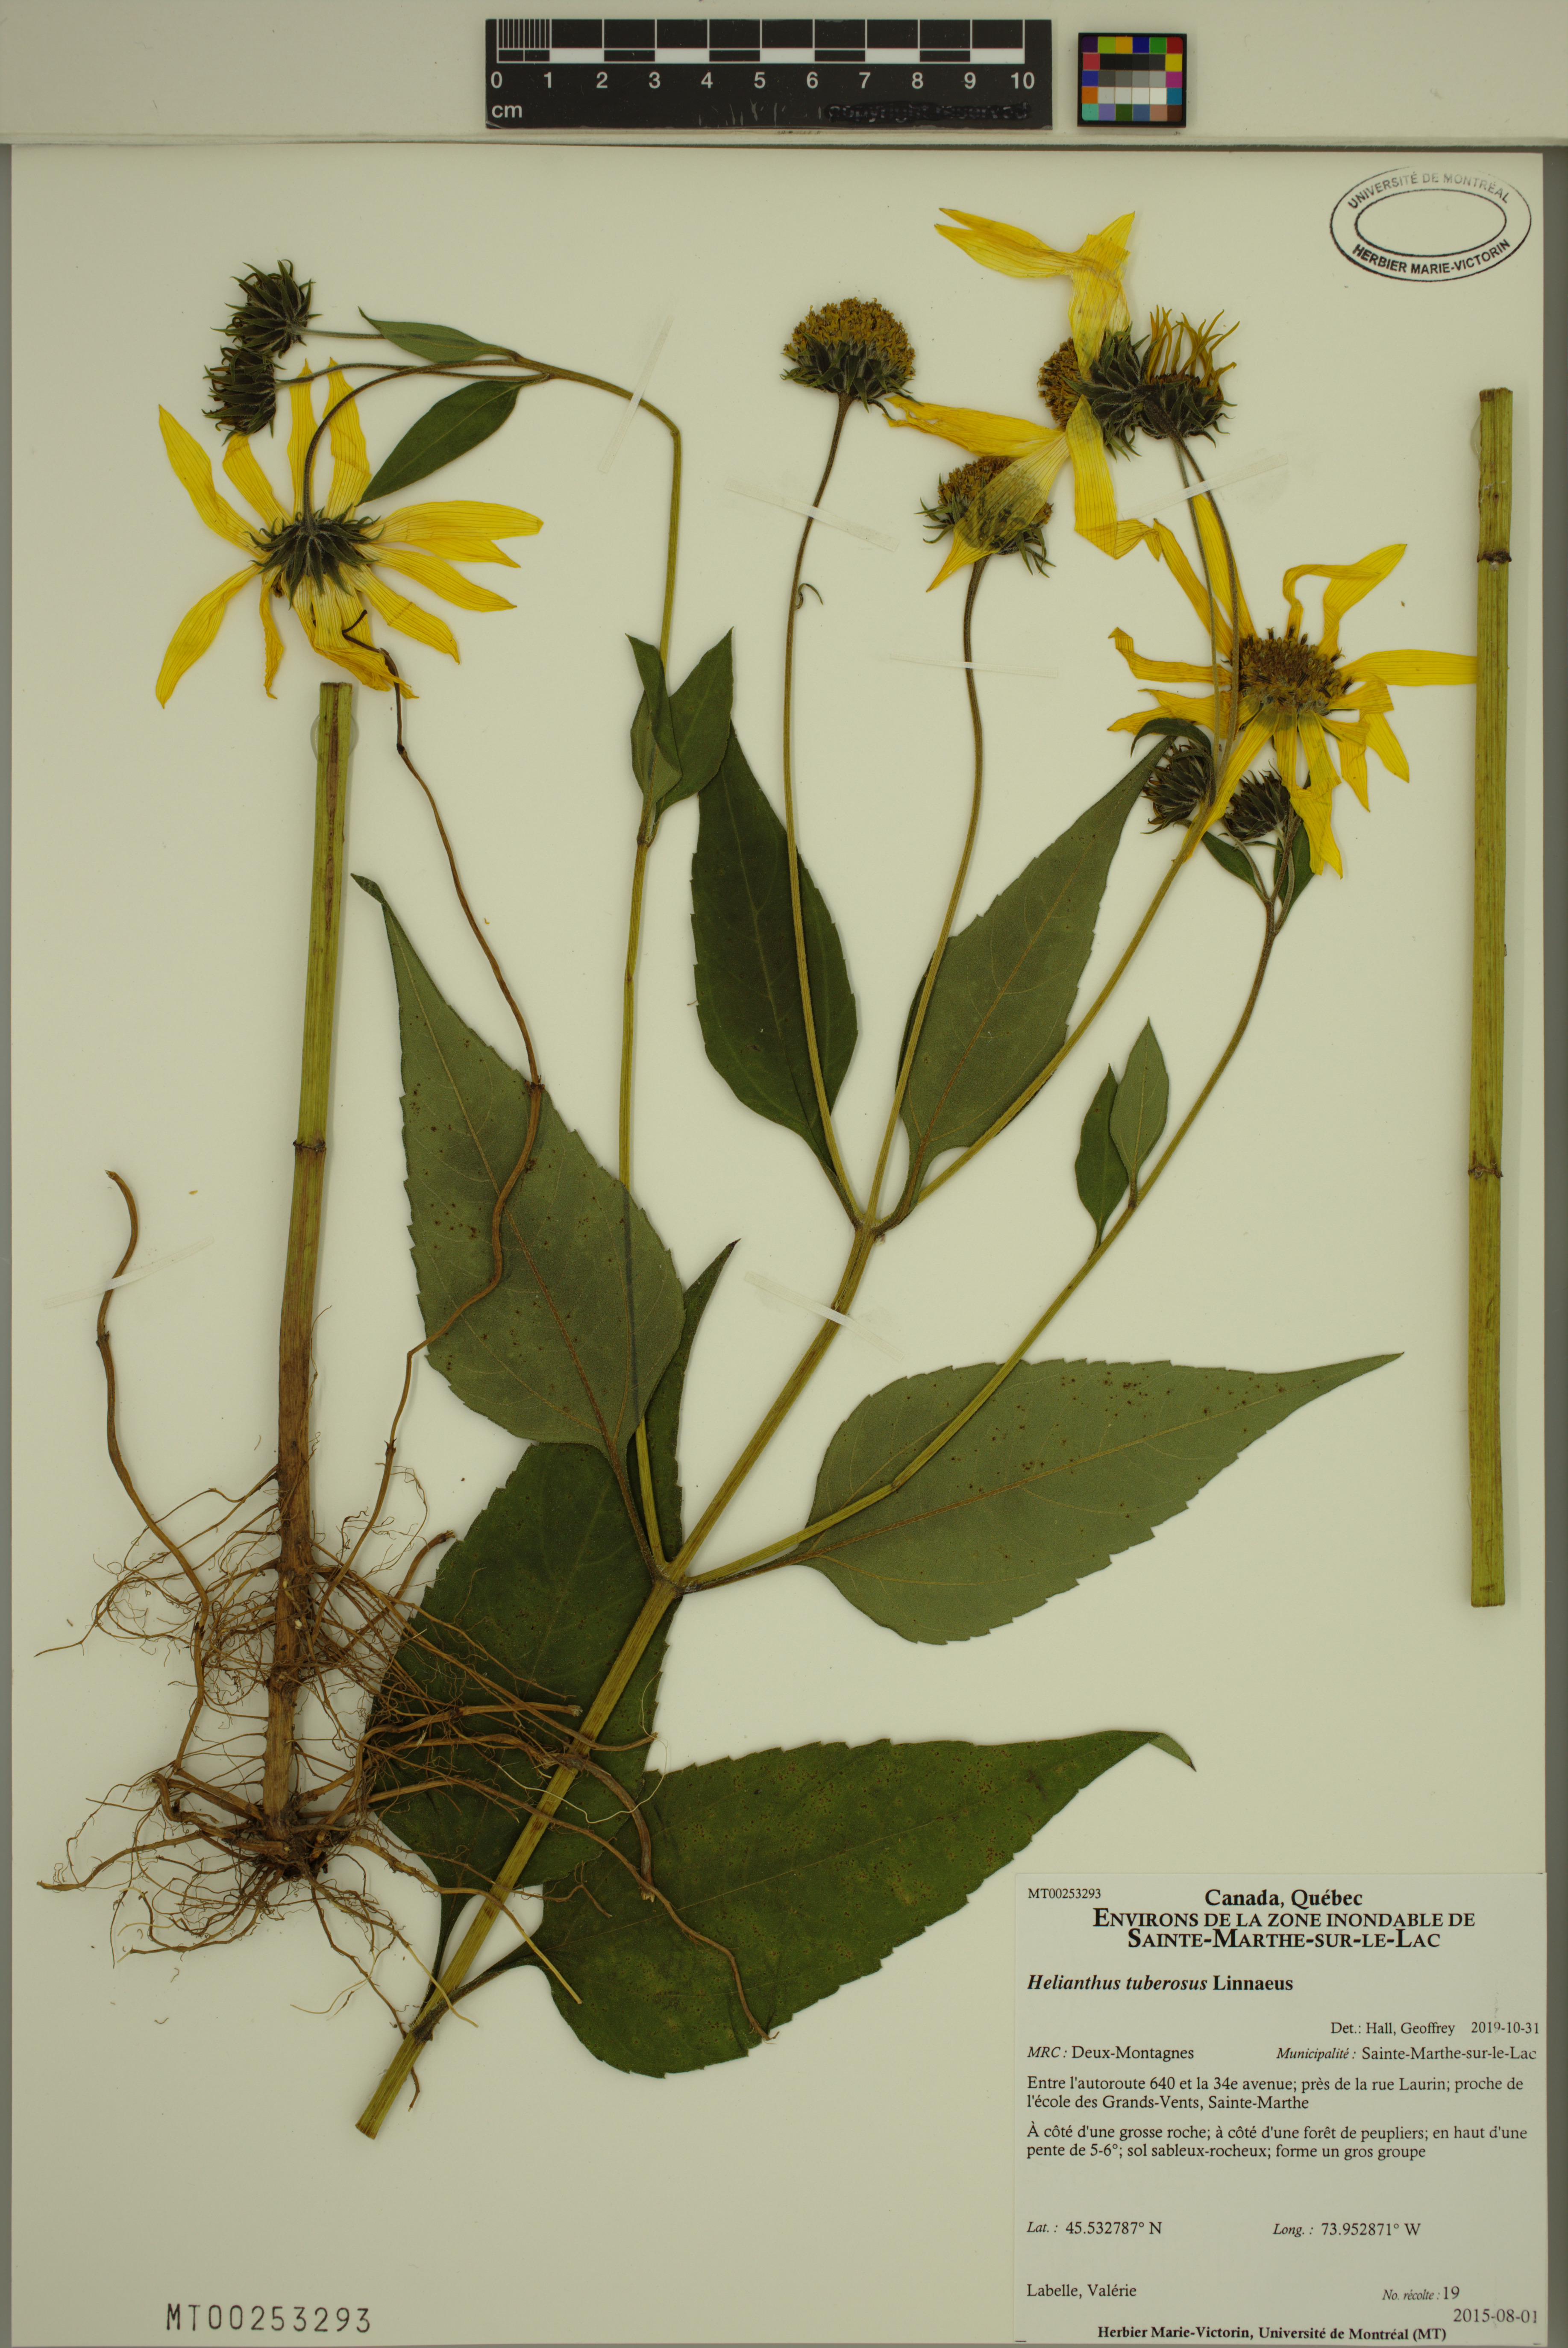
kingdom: Plantae
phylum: Tracheophyta
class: Magnoliopsida
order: Asterales
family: Asteraceae
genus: Helianthus
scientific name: Helianthus tuberosus
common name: Jerusalem artichoke
